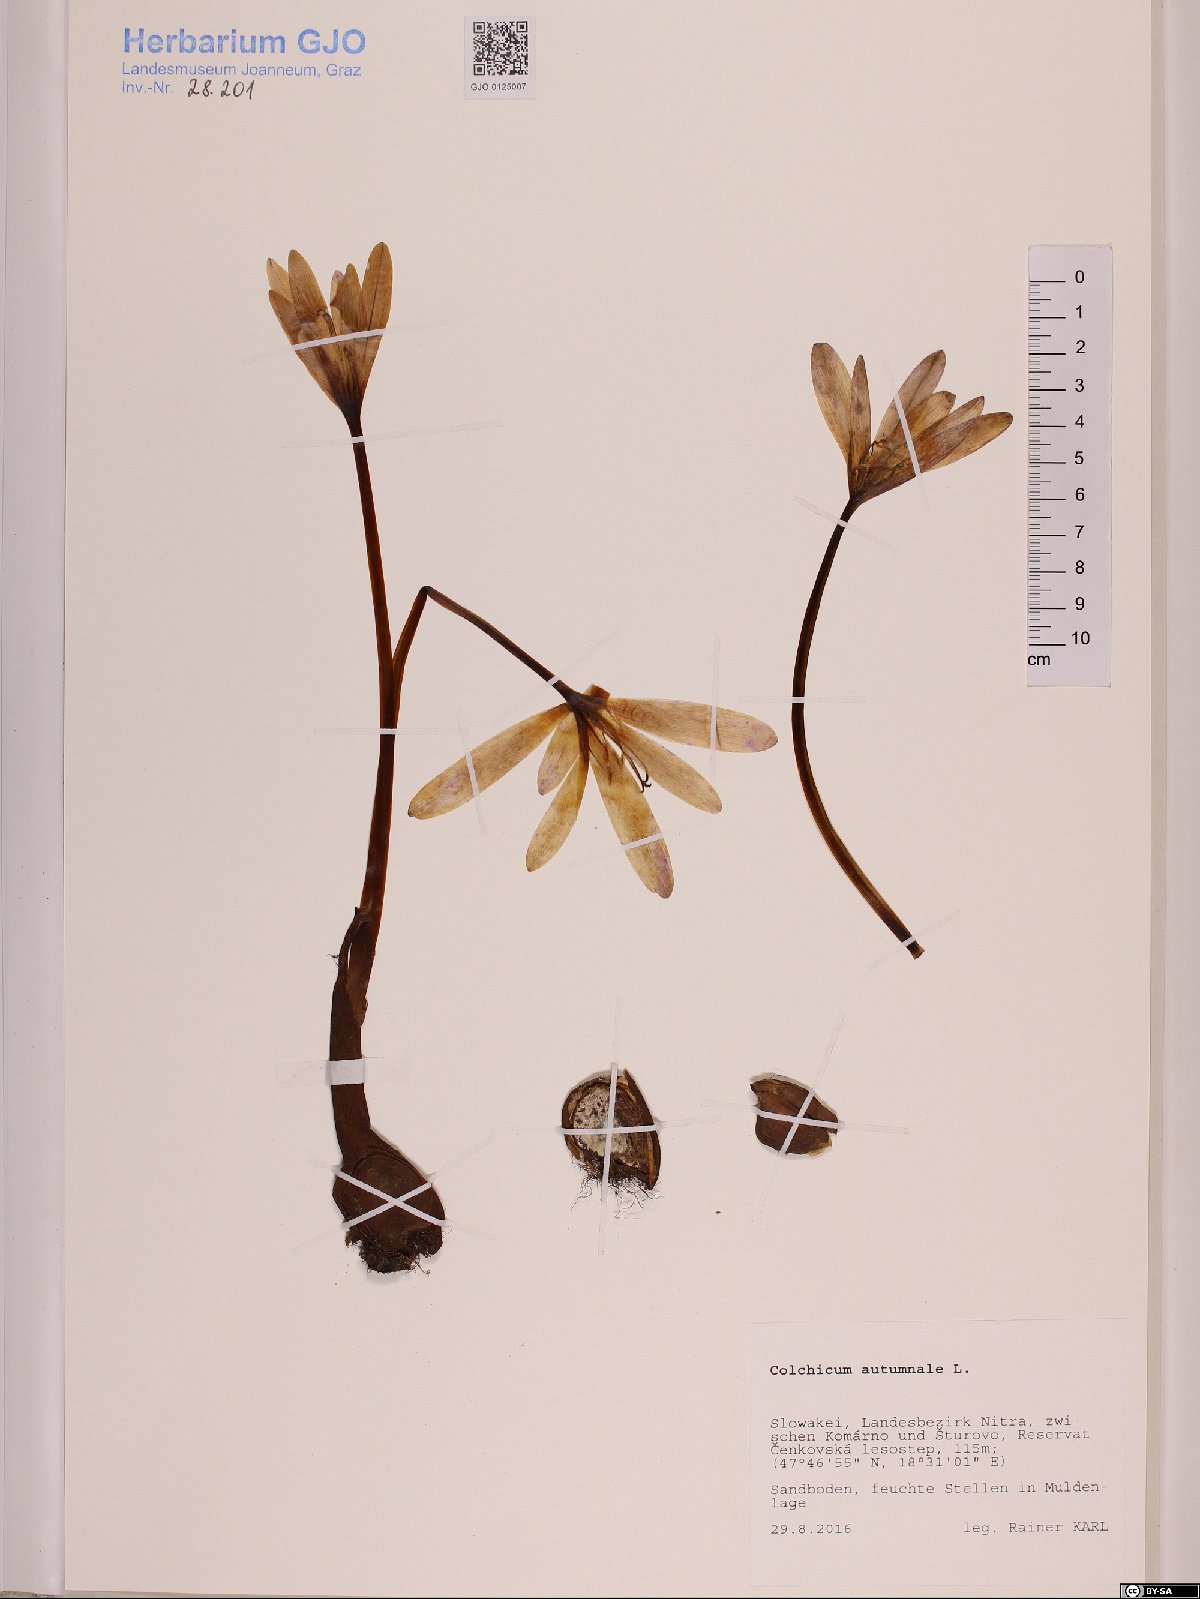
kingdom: Plantae
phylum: Tracheophyta
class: Liliopsida
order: Liliales
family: Colchicaceae
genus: Colchicum
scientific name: Colchicum autumnale
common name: Autumn crocus
